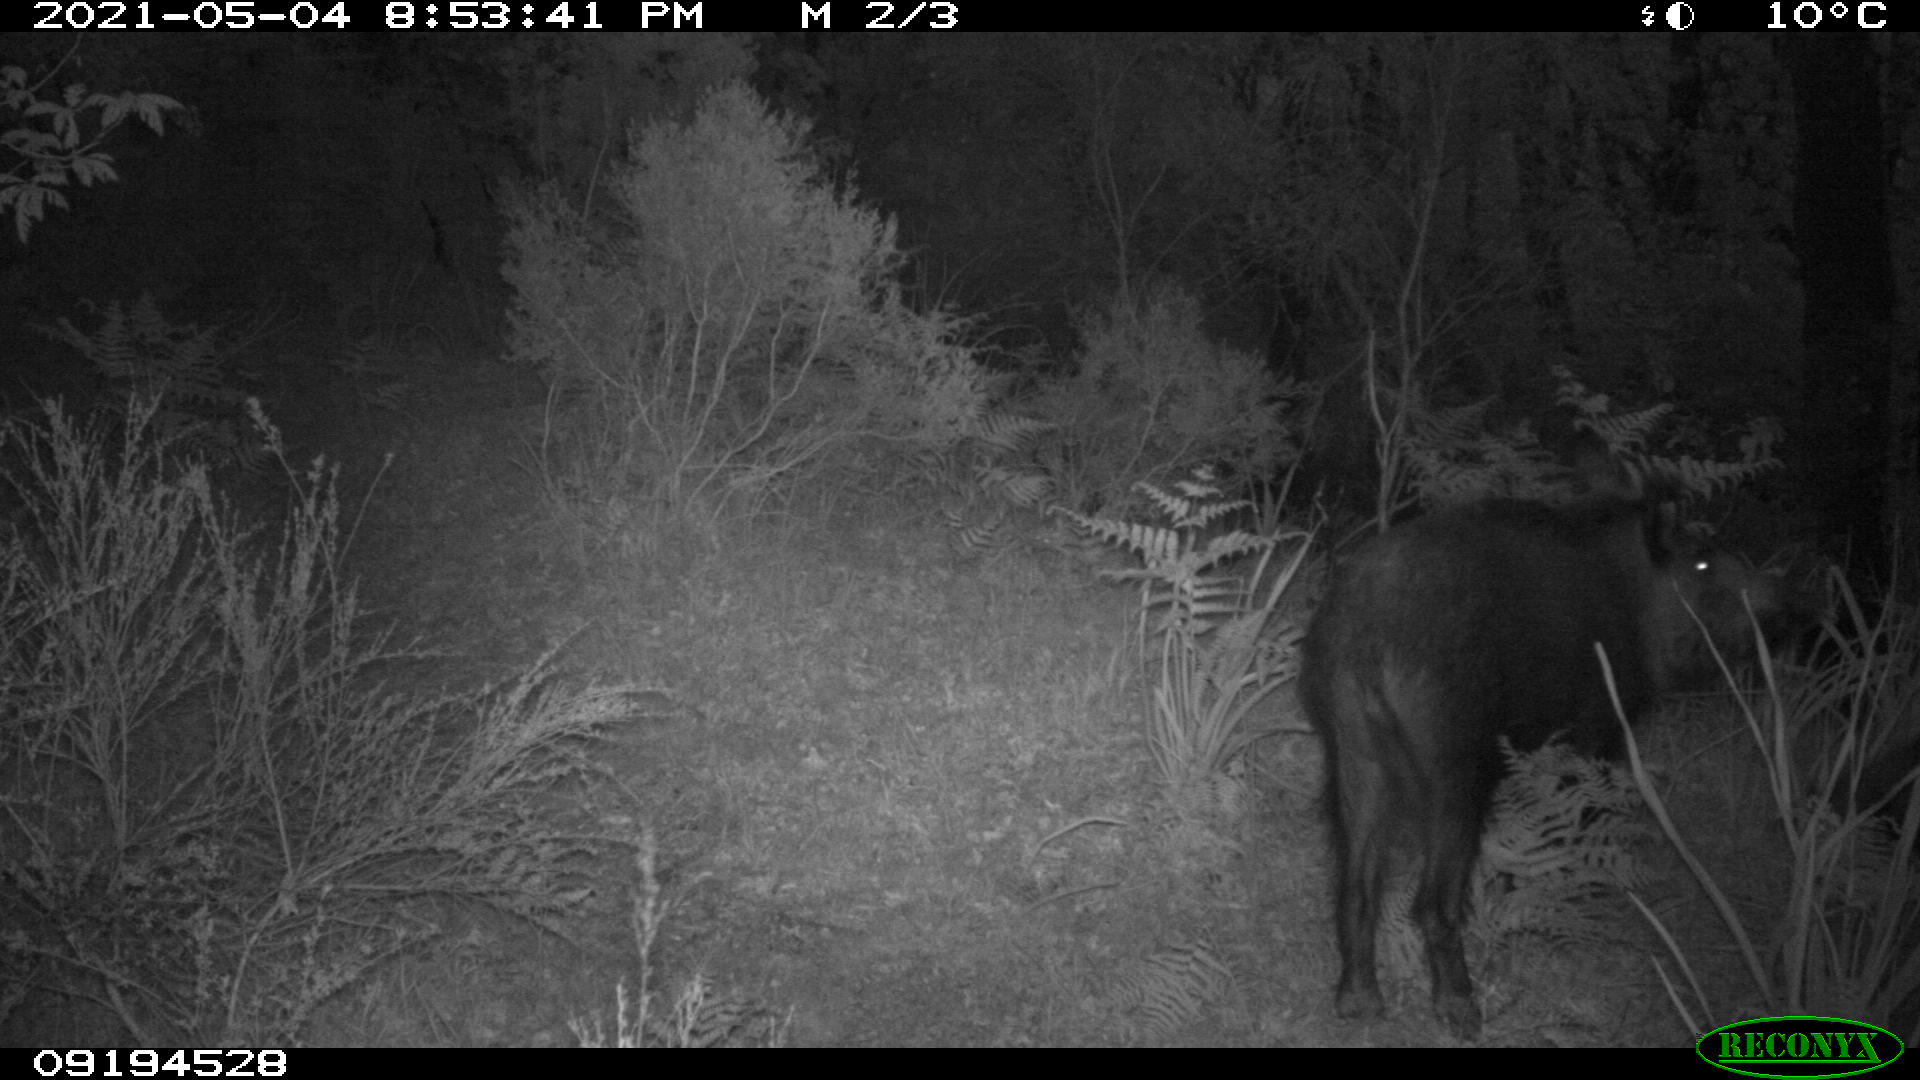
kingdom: Animalia
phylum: Chordata
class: Mammalia
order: Artiodactyla
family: Suidae
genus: Sus
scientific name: Sus scrofa
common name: Wild boar
